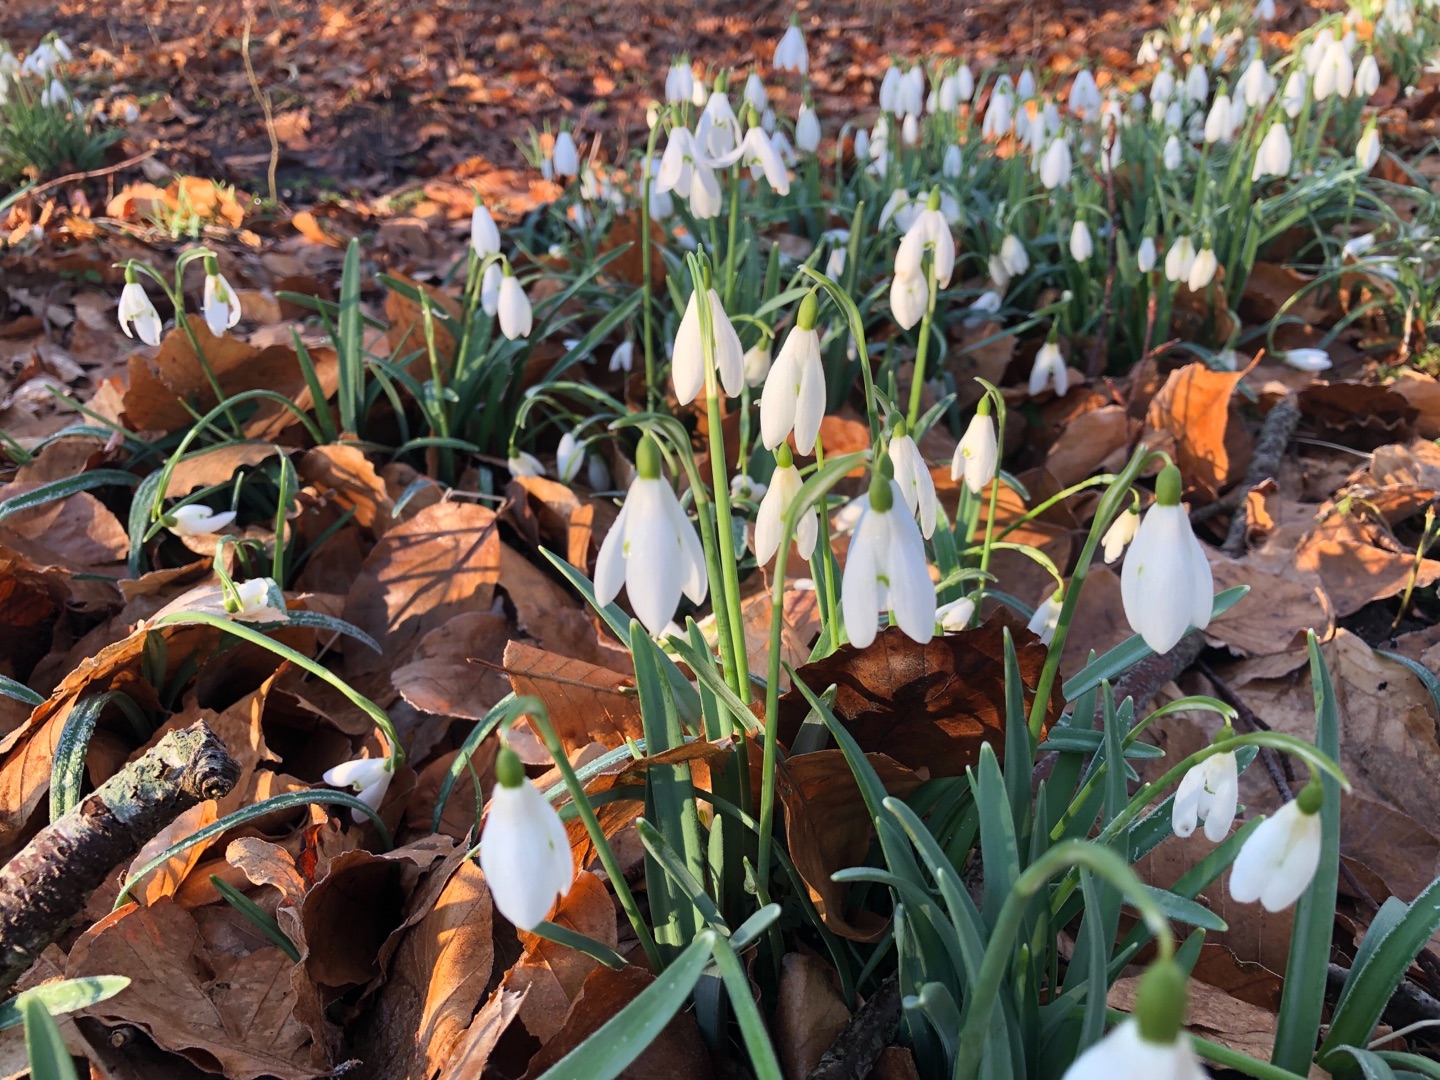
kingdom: Plantae
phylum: Tracheophyta
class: Liliopsida
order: Asparagales
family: Amaryllidaceae
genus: Galanthus
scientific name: Galanthus nivalis
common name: Vintergæk
